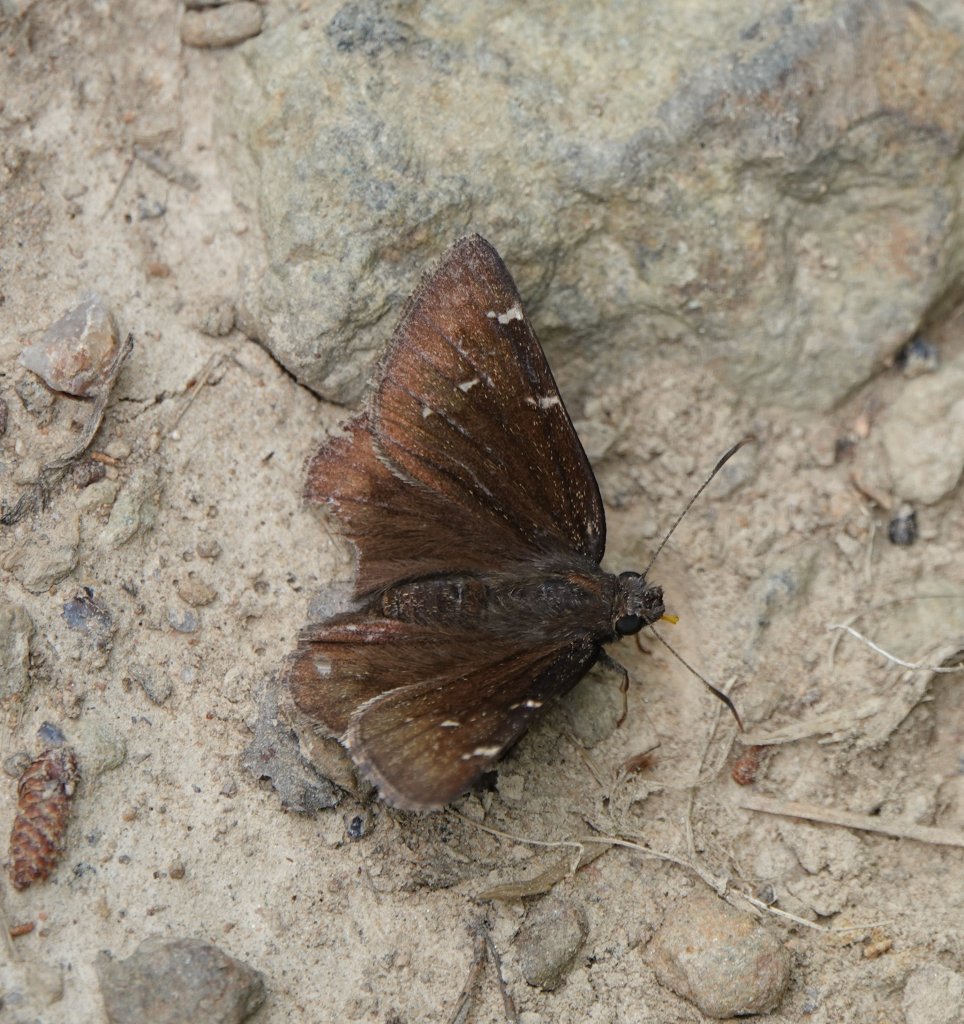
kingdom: Animalia
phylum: Arthropoda
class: Insecta
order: Lepidoptera
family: Hesperiidae
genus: Autochton
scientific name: Autochton
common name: Northern Cloudywing
